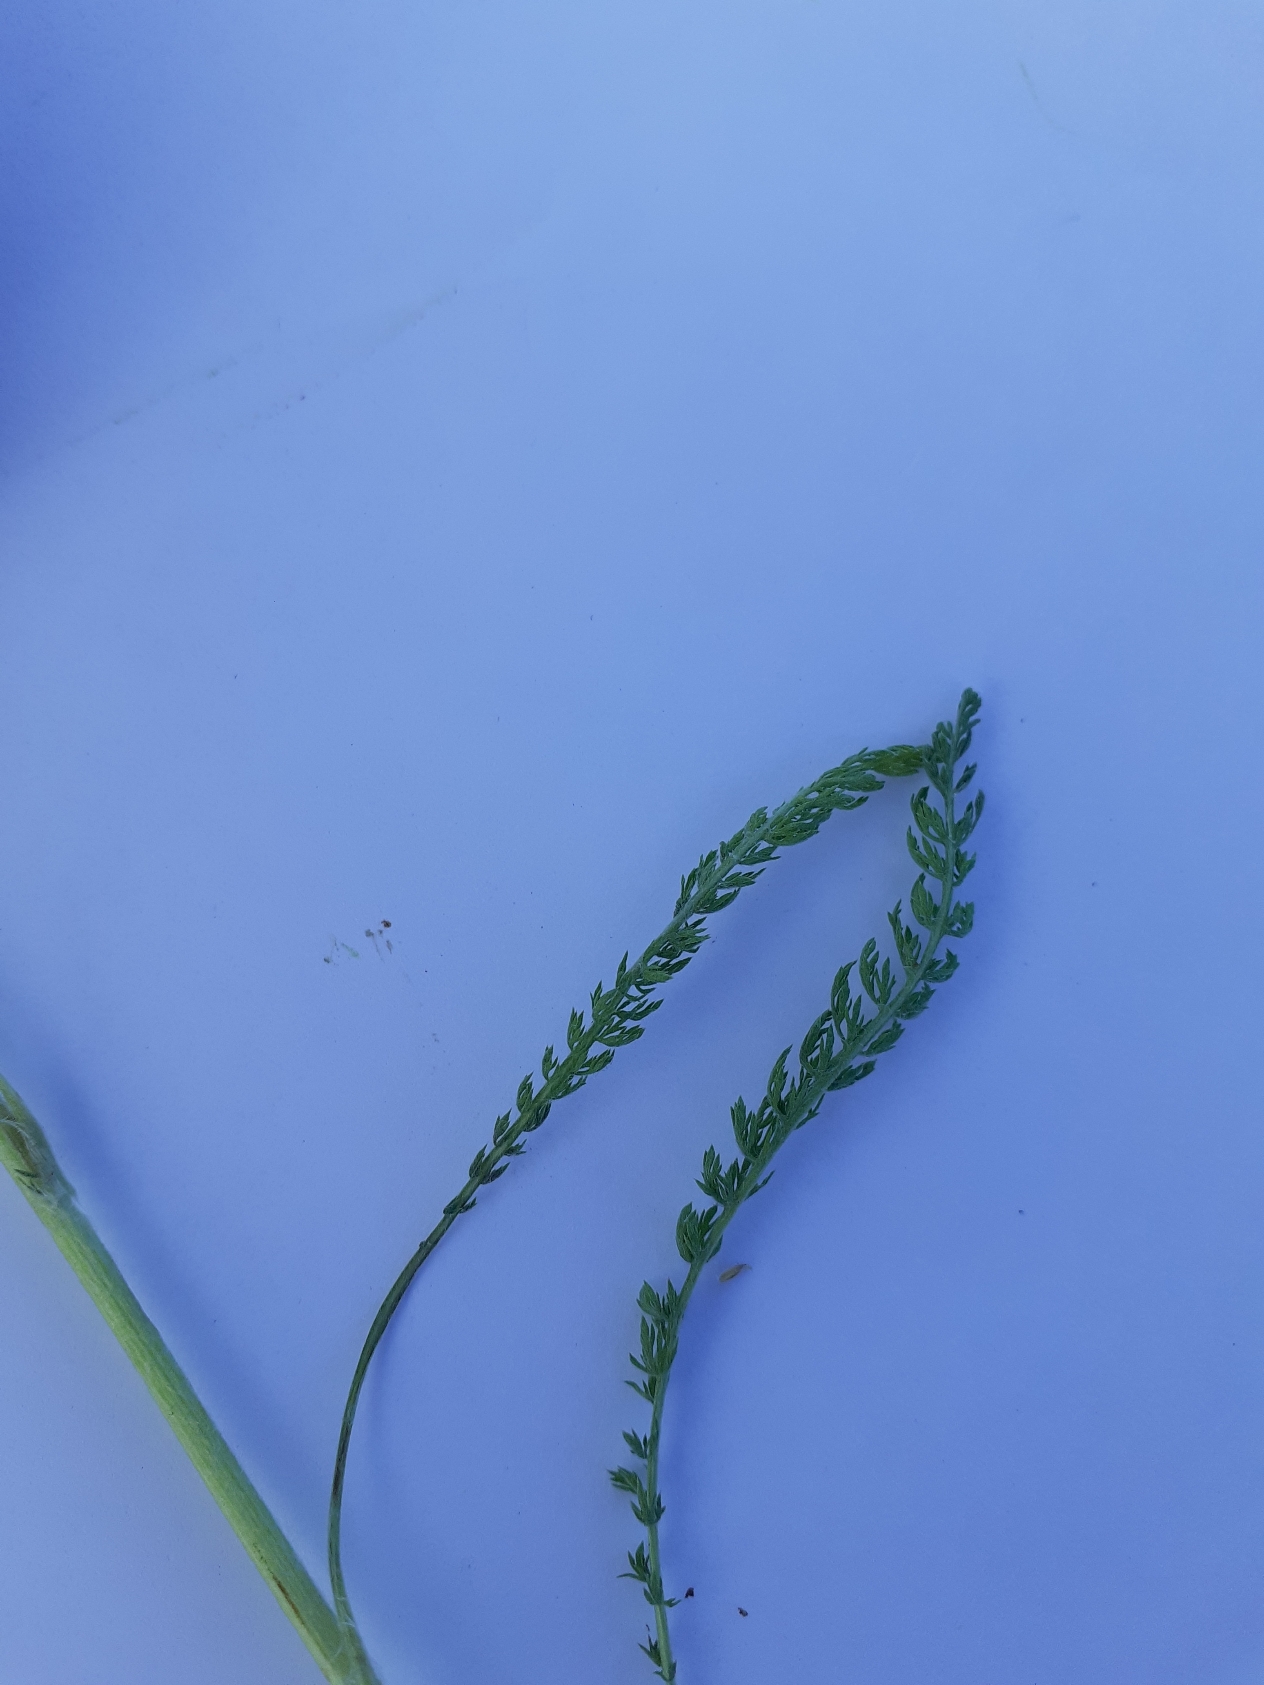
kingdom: Plantae
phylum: Tracheophyta
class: Magnoliopsida
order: Asterales
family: Asteraceae
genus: Achillea
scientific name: Achillea millefolium
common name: Almindelig røllike
